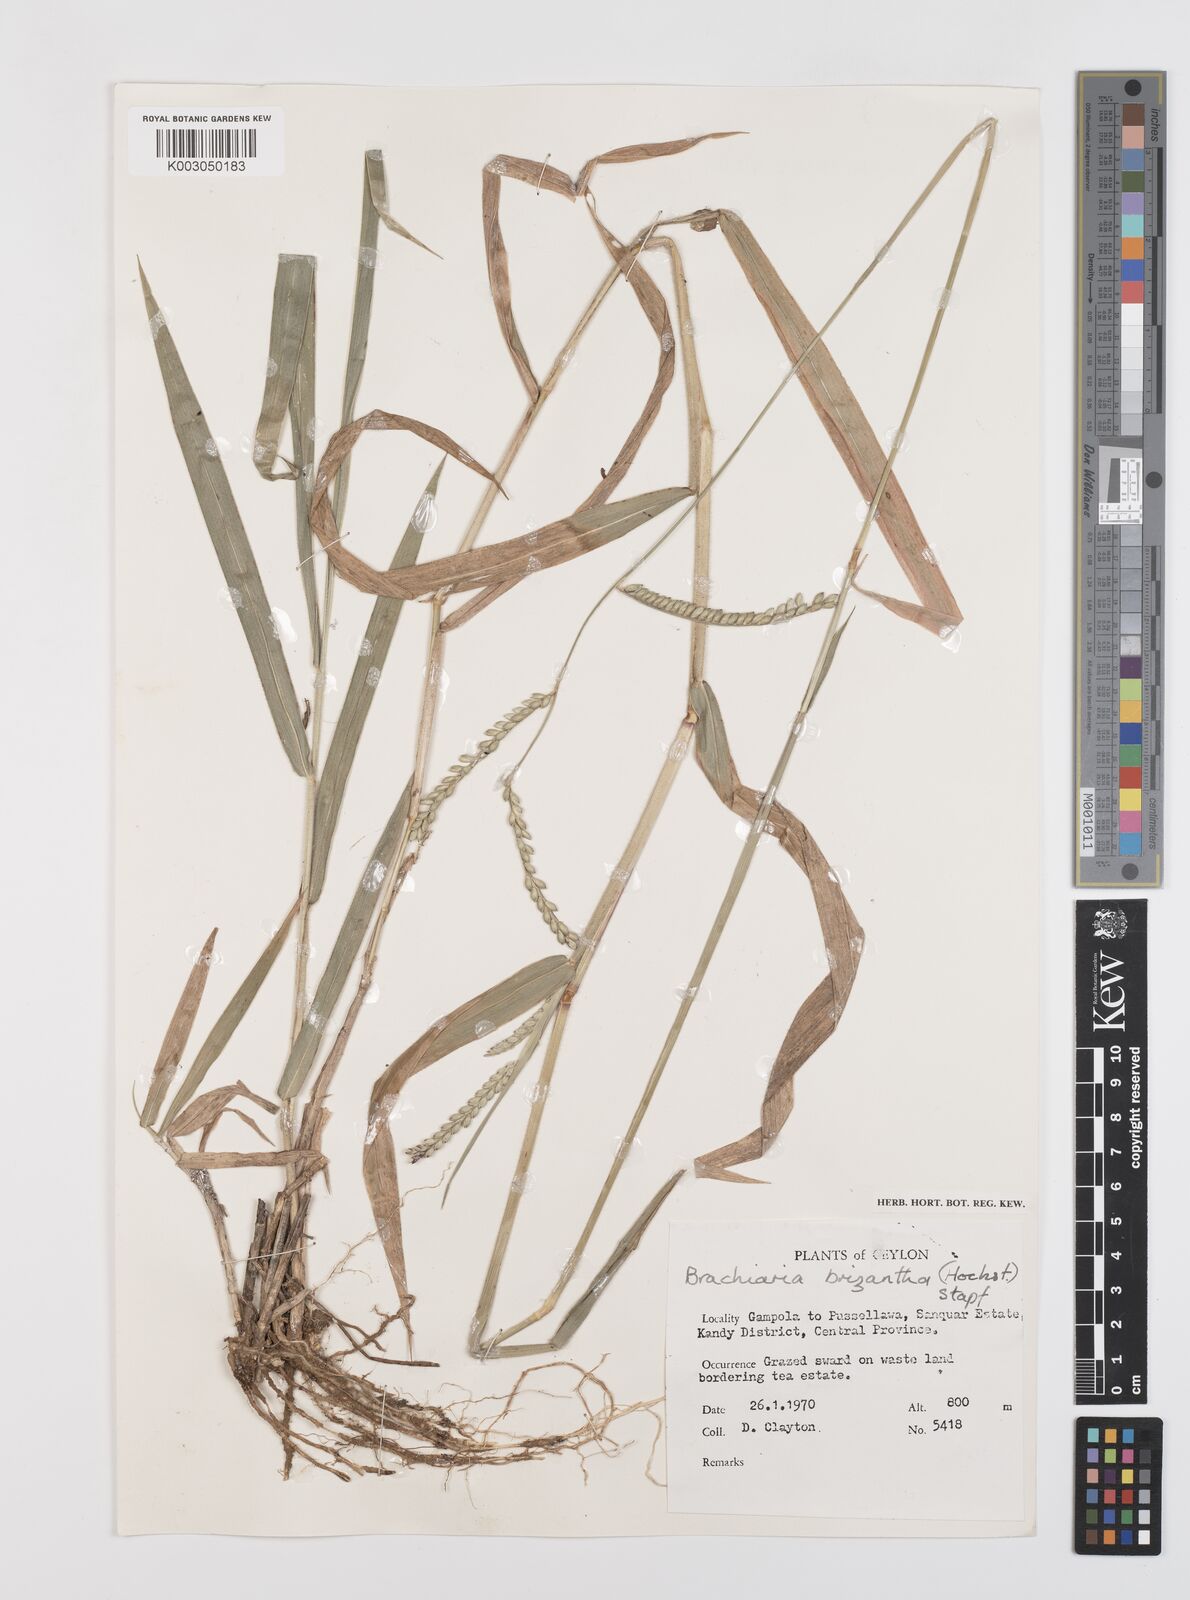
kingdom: Plantae
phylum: Tracheophyta
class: Liliopsida
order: Poales
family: Poaceae
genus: Urochloa
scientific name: Urochloa eminii
